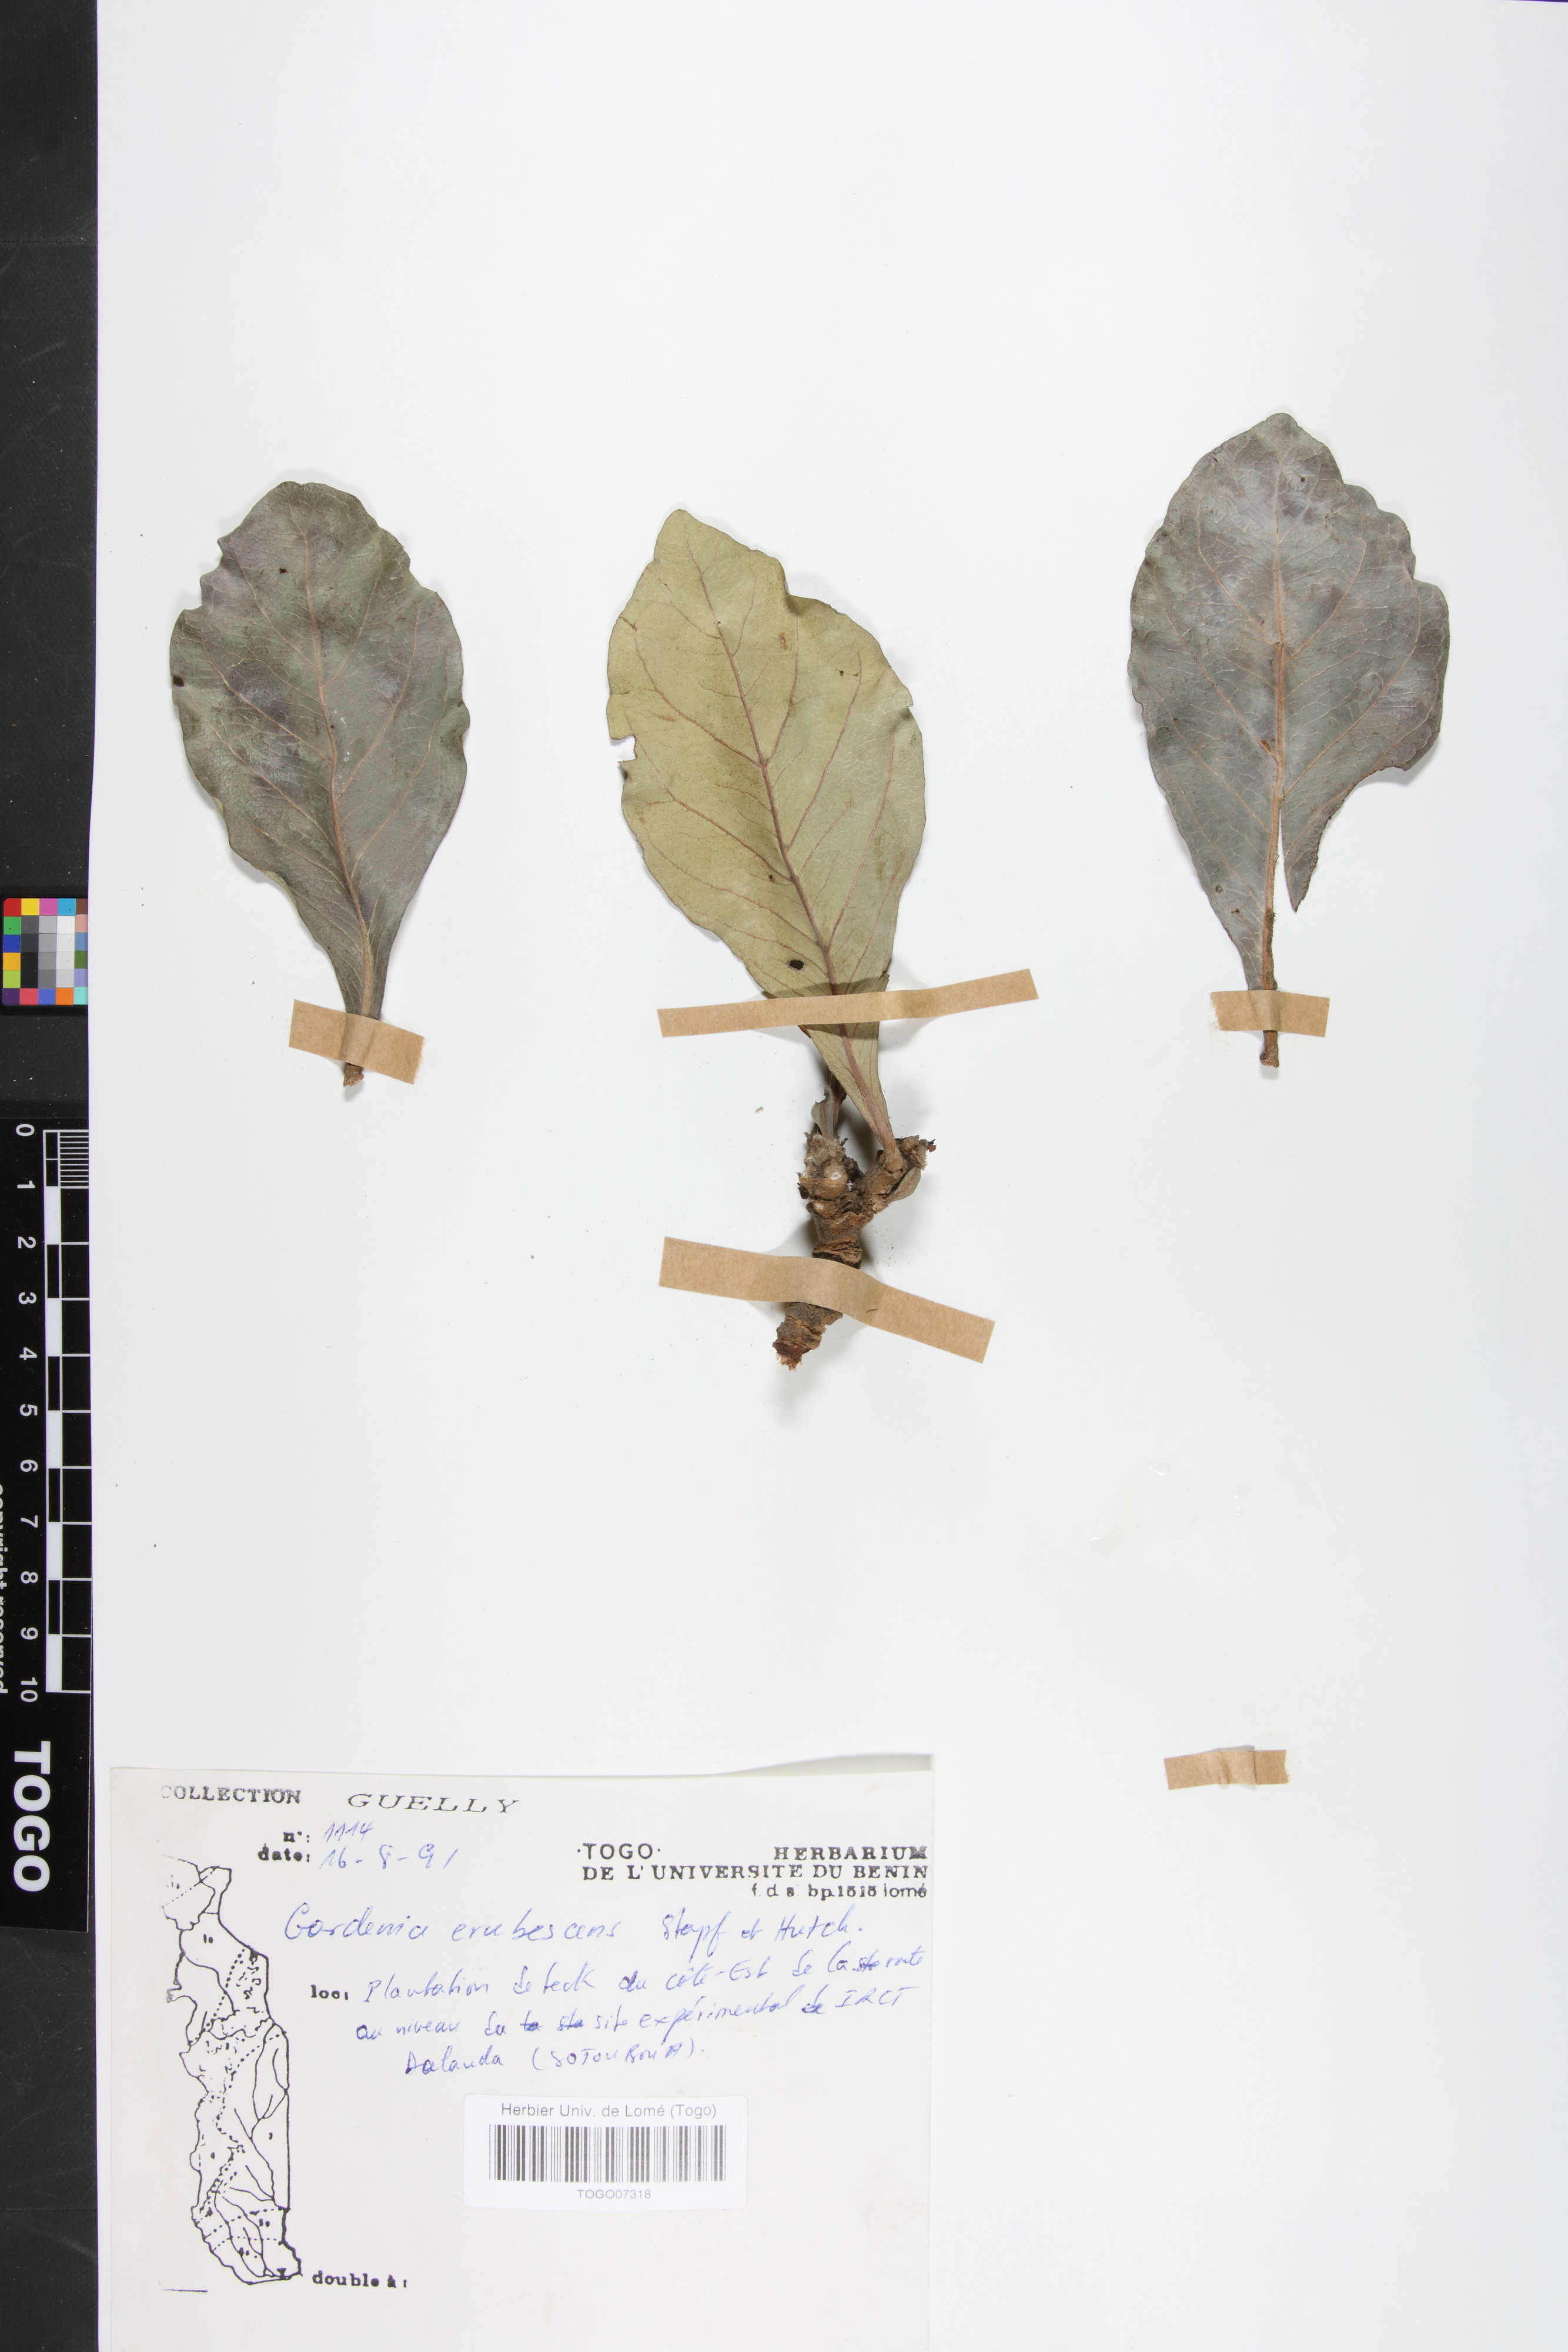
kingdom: Plantae
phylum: Tracheophyta
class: Magnoliopsida
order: Gentianales
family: Rubiaceae
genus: Gardenia
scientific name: Gardenia erubescens
